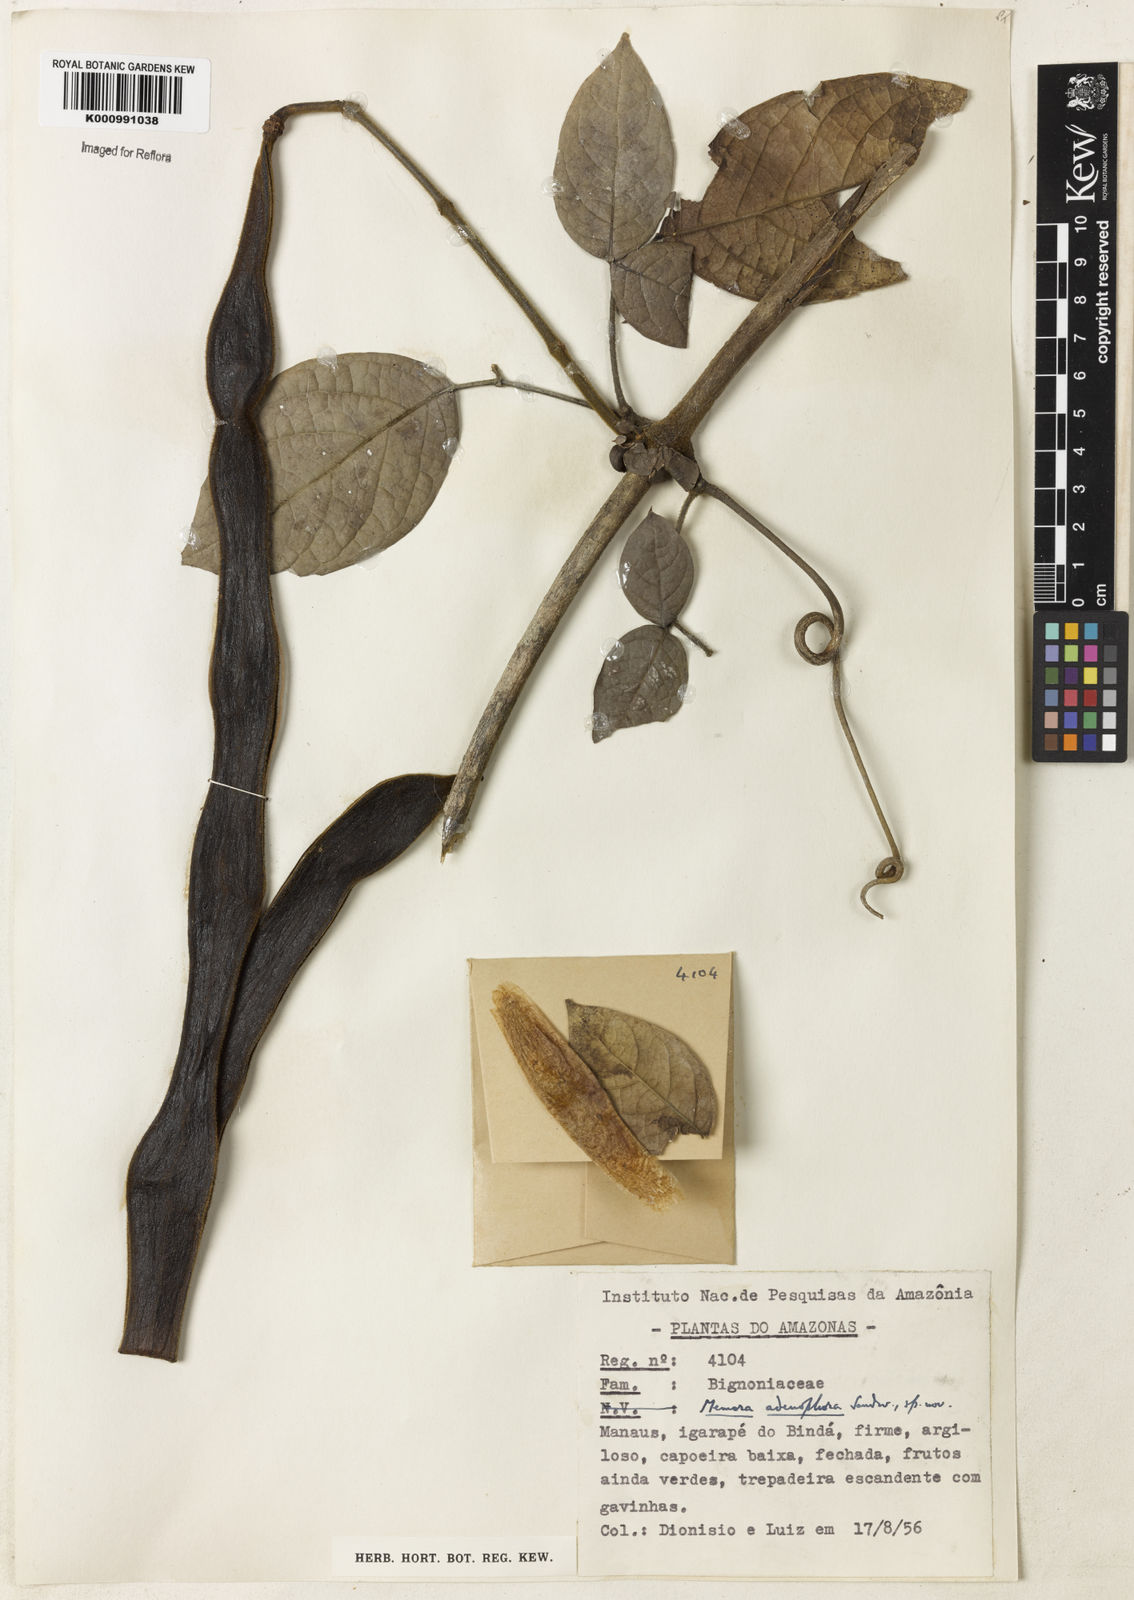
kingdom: Plantae
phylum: Tracheophyta
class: Magnoliopsida
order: Lamiales
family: Bignoniaceae
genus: Adenocalymma
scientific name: Adenocalymma adenophorum
